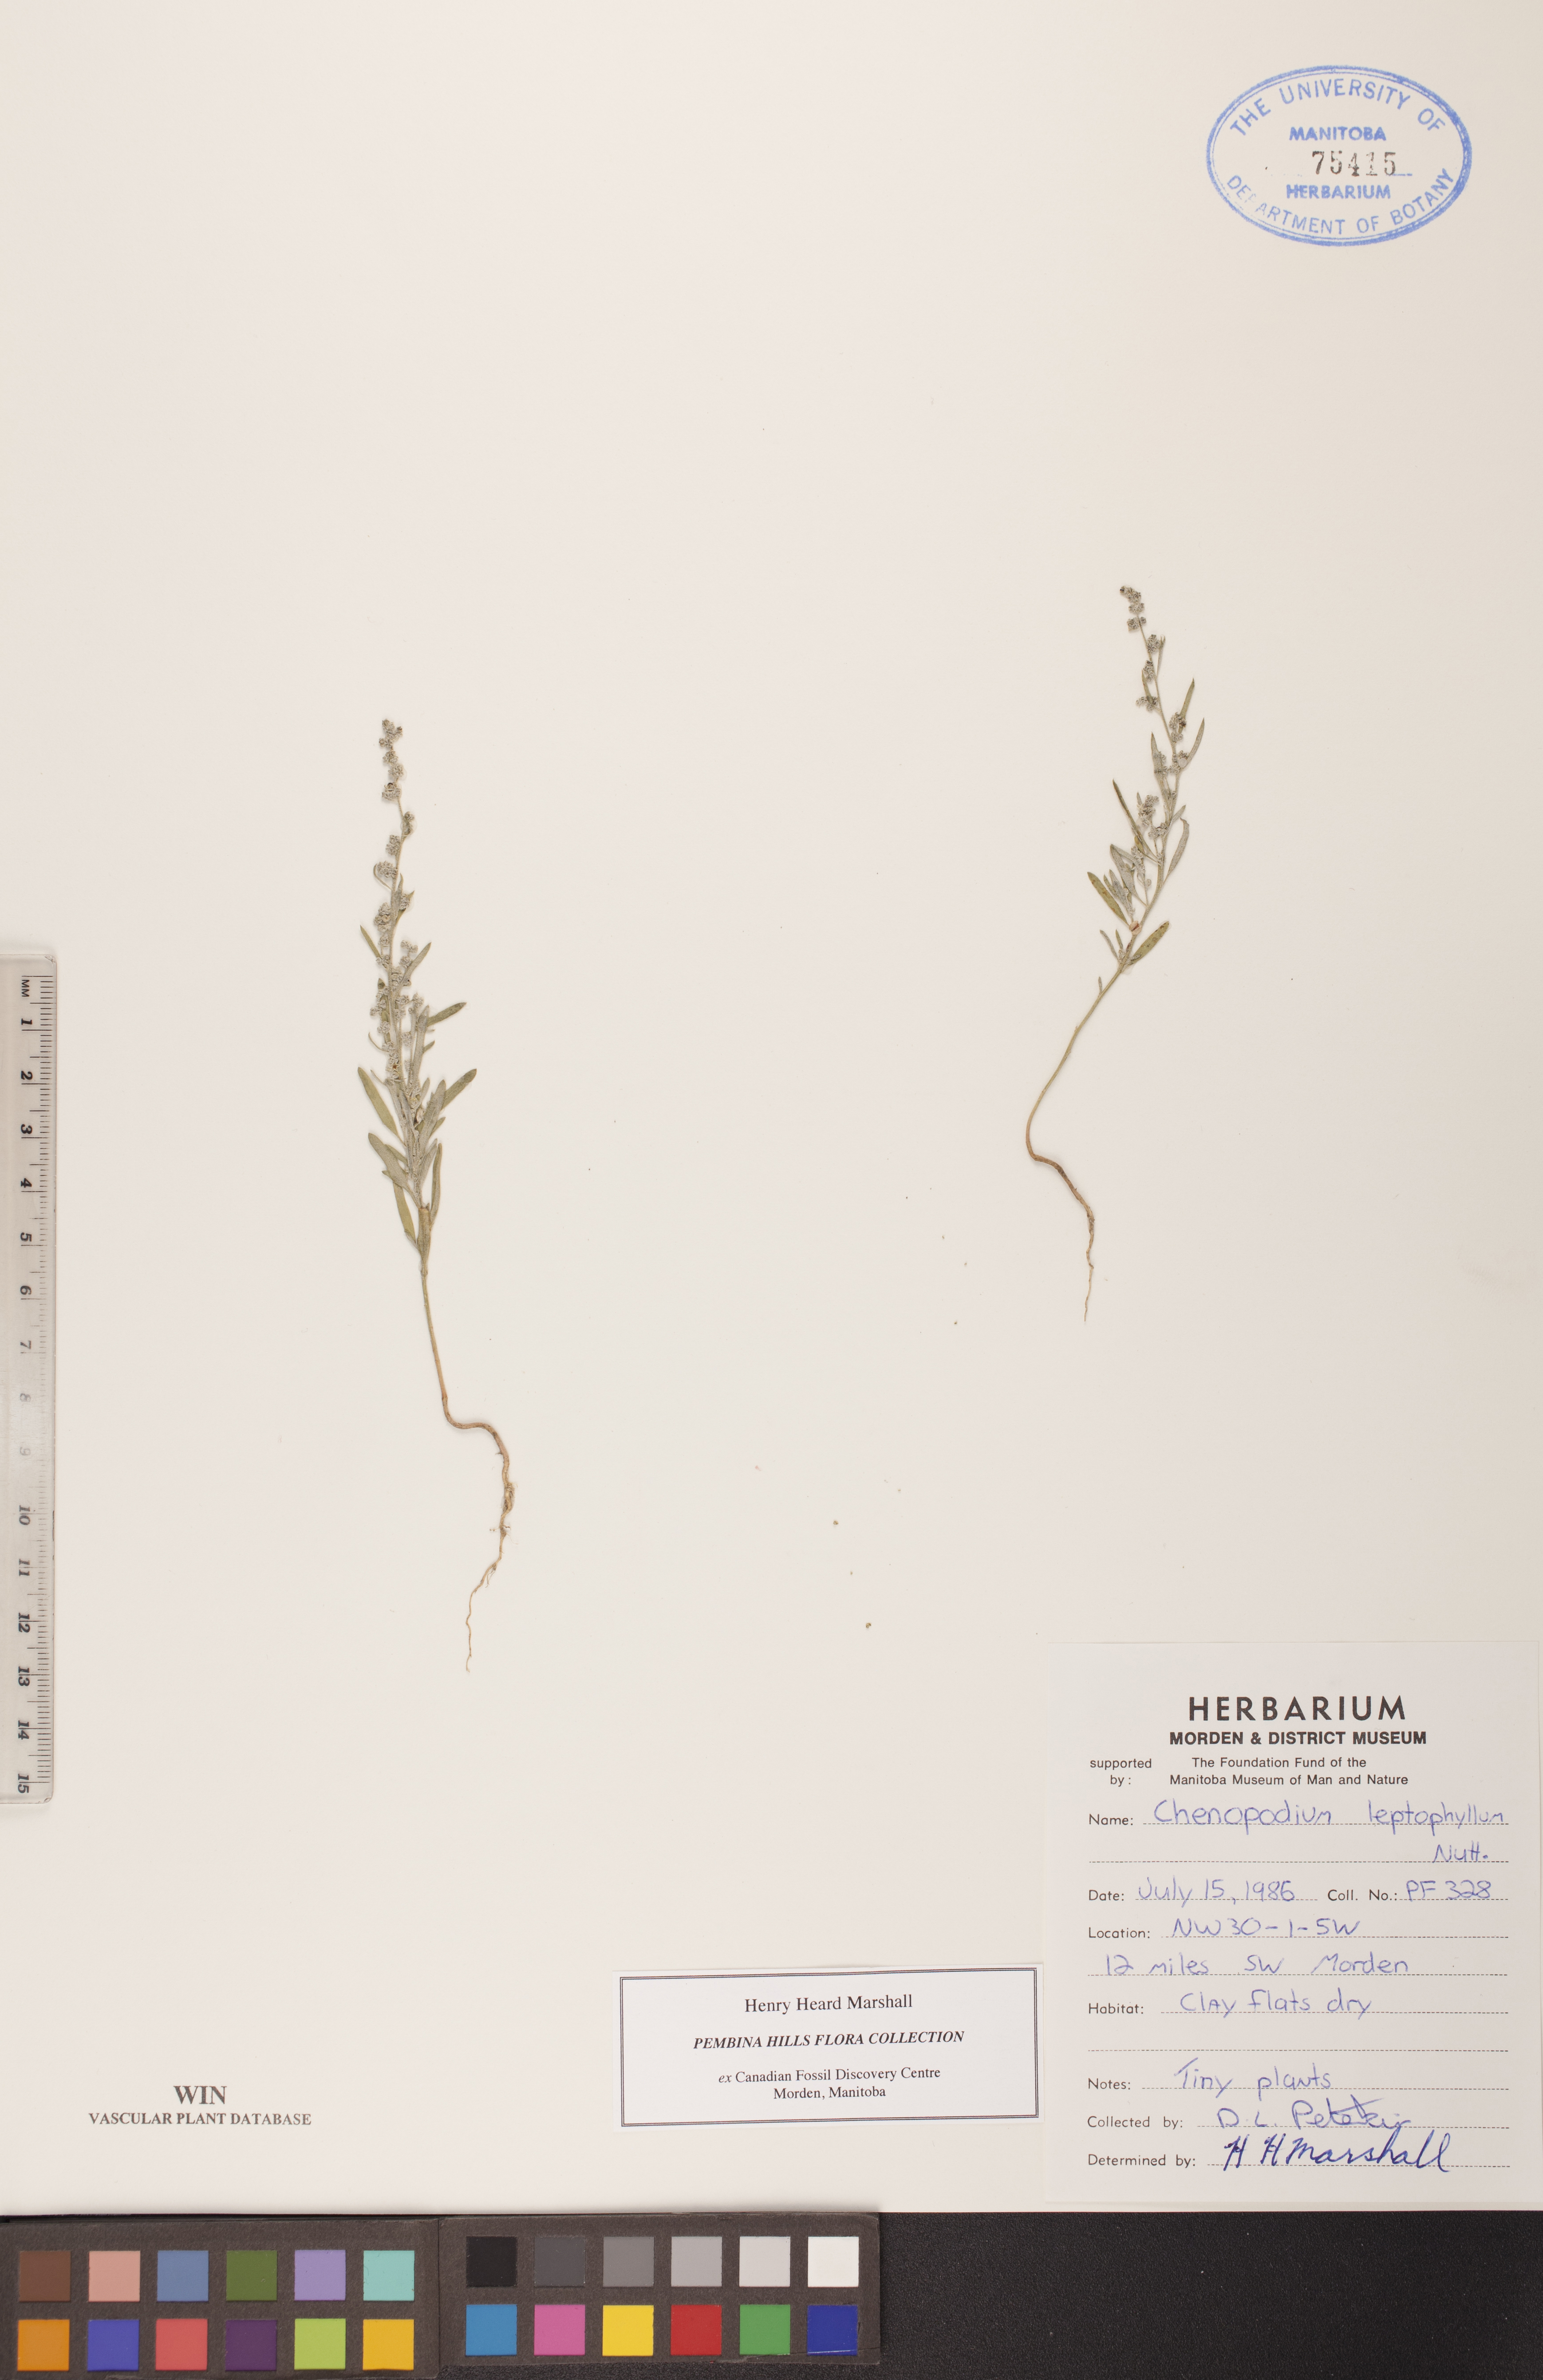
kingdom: Plantae
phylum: Tracheophyta
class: Magnoliopsida
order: Caryophyllales
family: Amaranthaceae
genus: Chenopodium
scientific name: Chenopodium leptophyllum
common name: Narrow-leaf goosefoot
